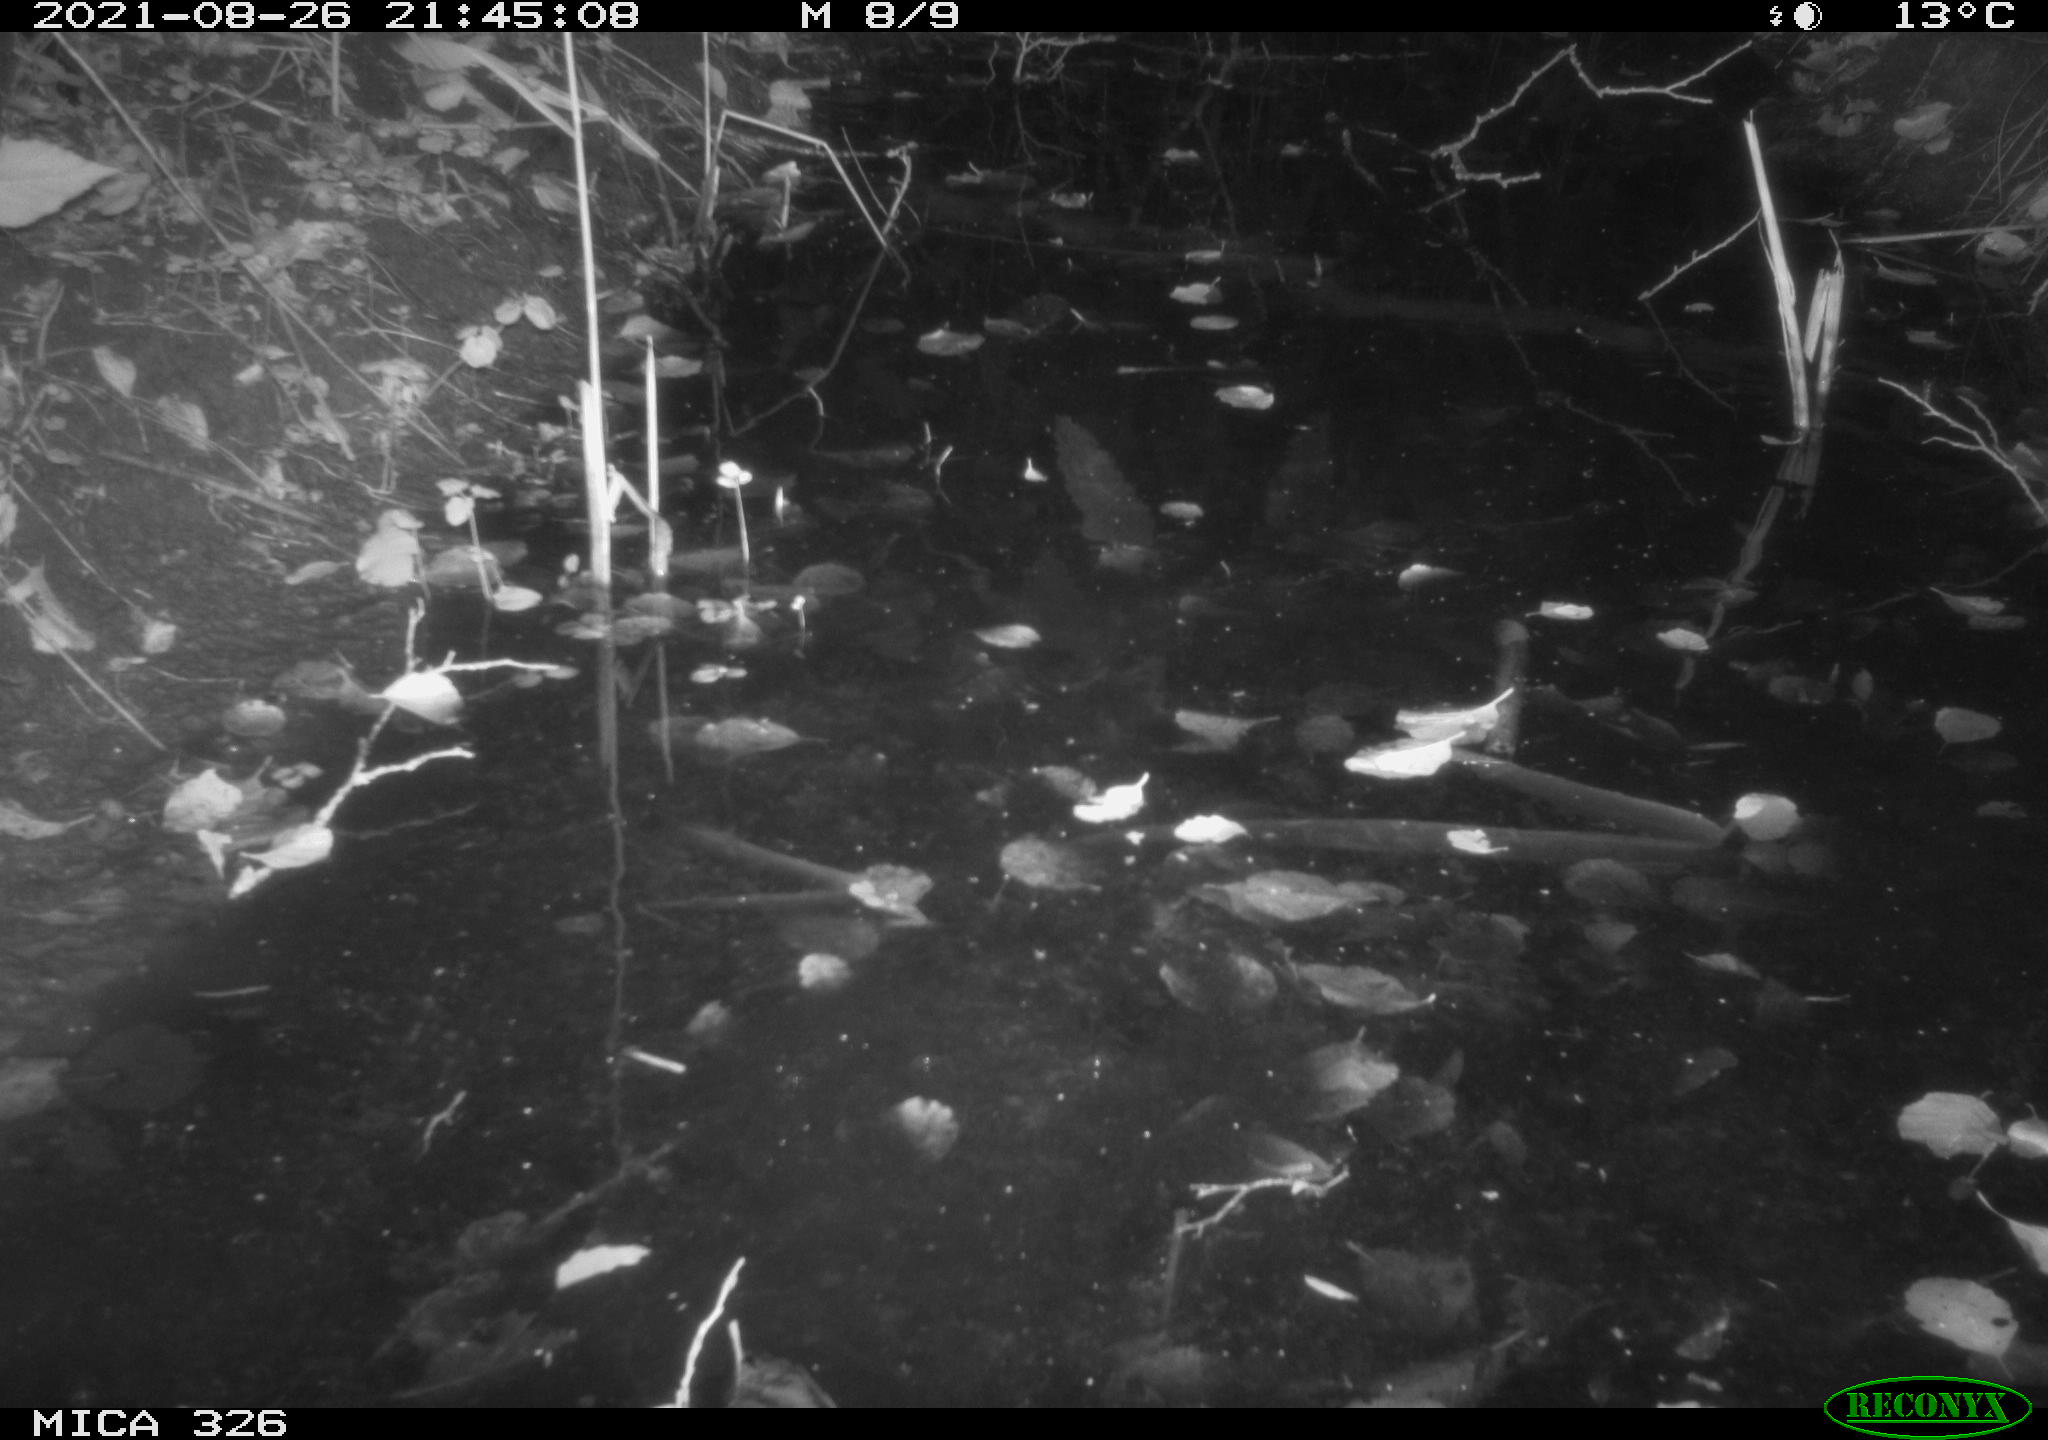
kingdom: Animalia
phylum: Chordata
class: Mammalia
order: Rodentia
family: Myocastoridae
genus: Myocastor
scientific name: Myocastor coypus
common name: Coypu
